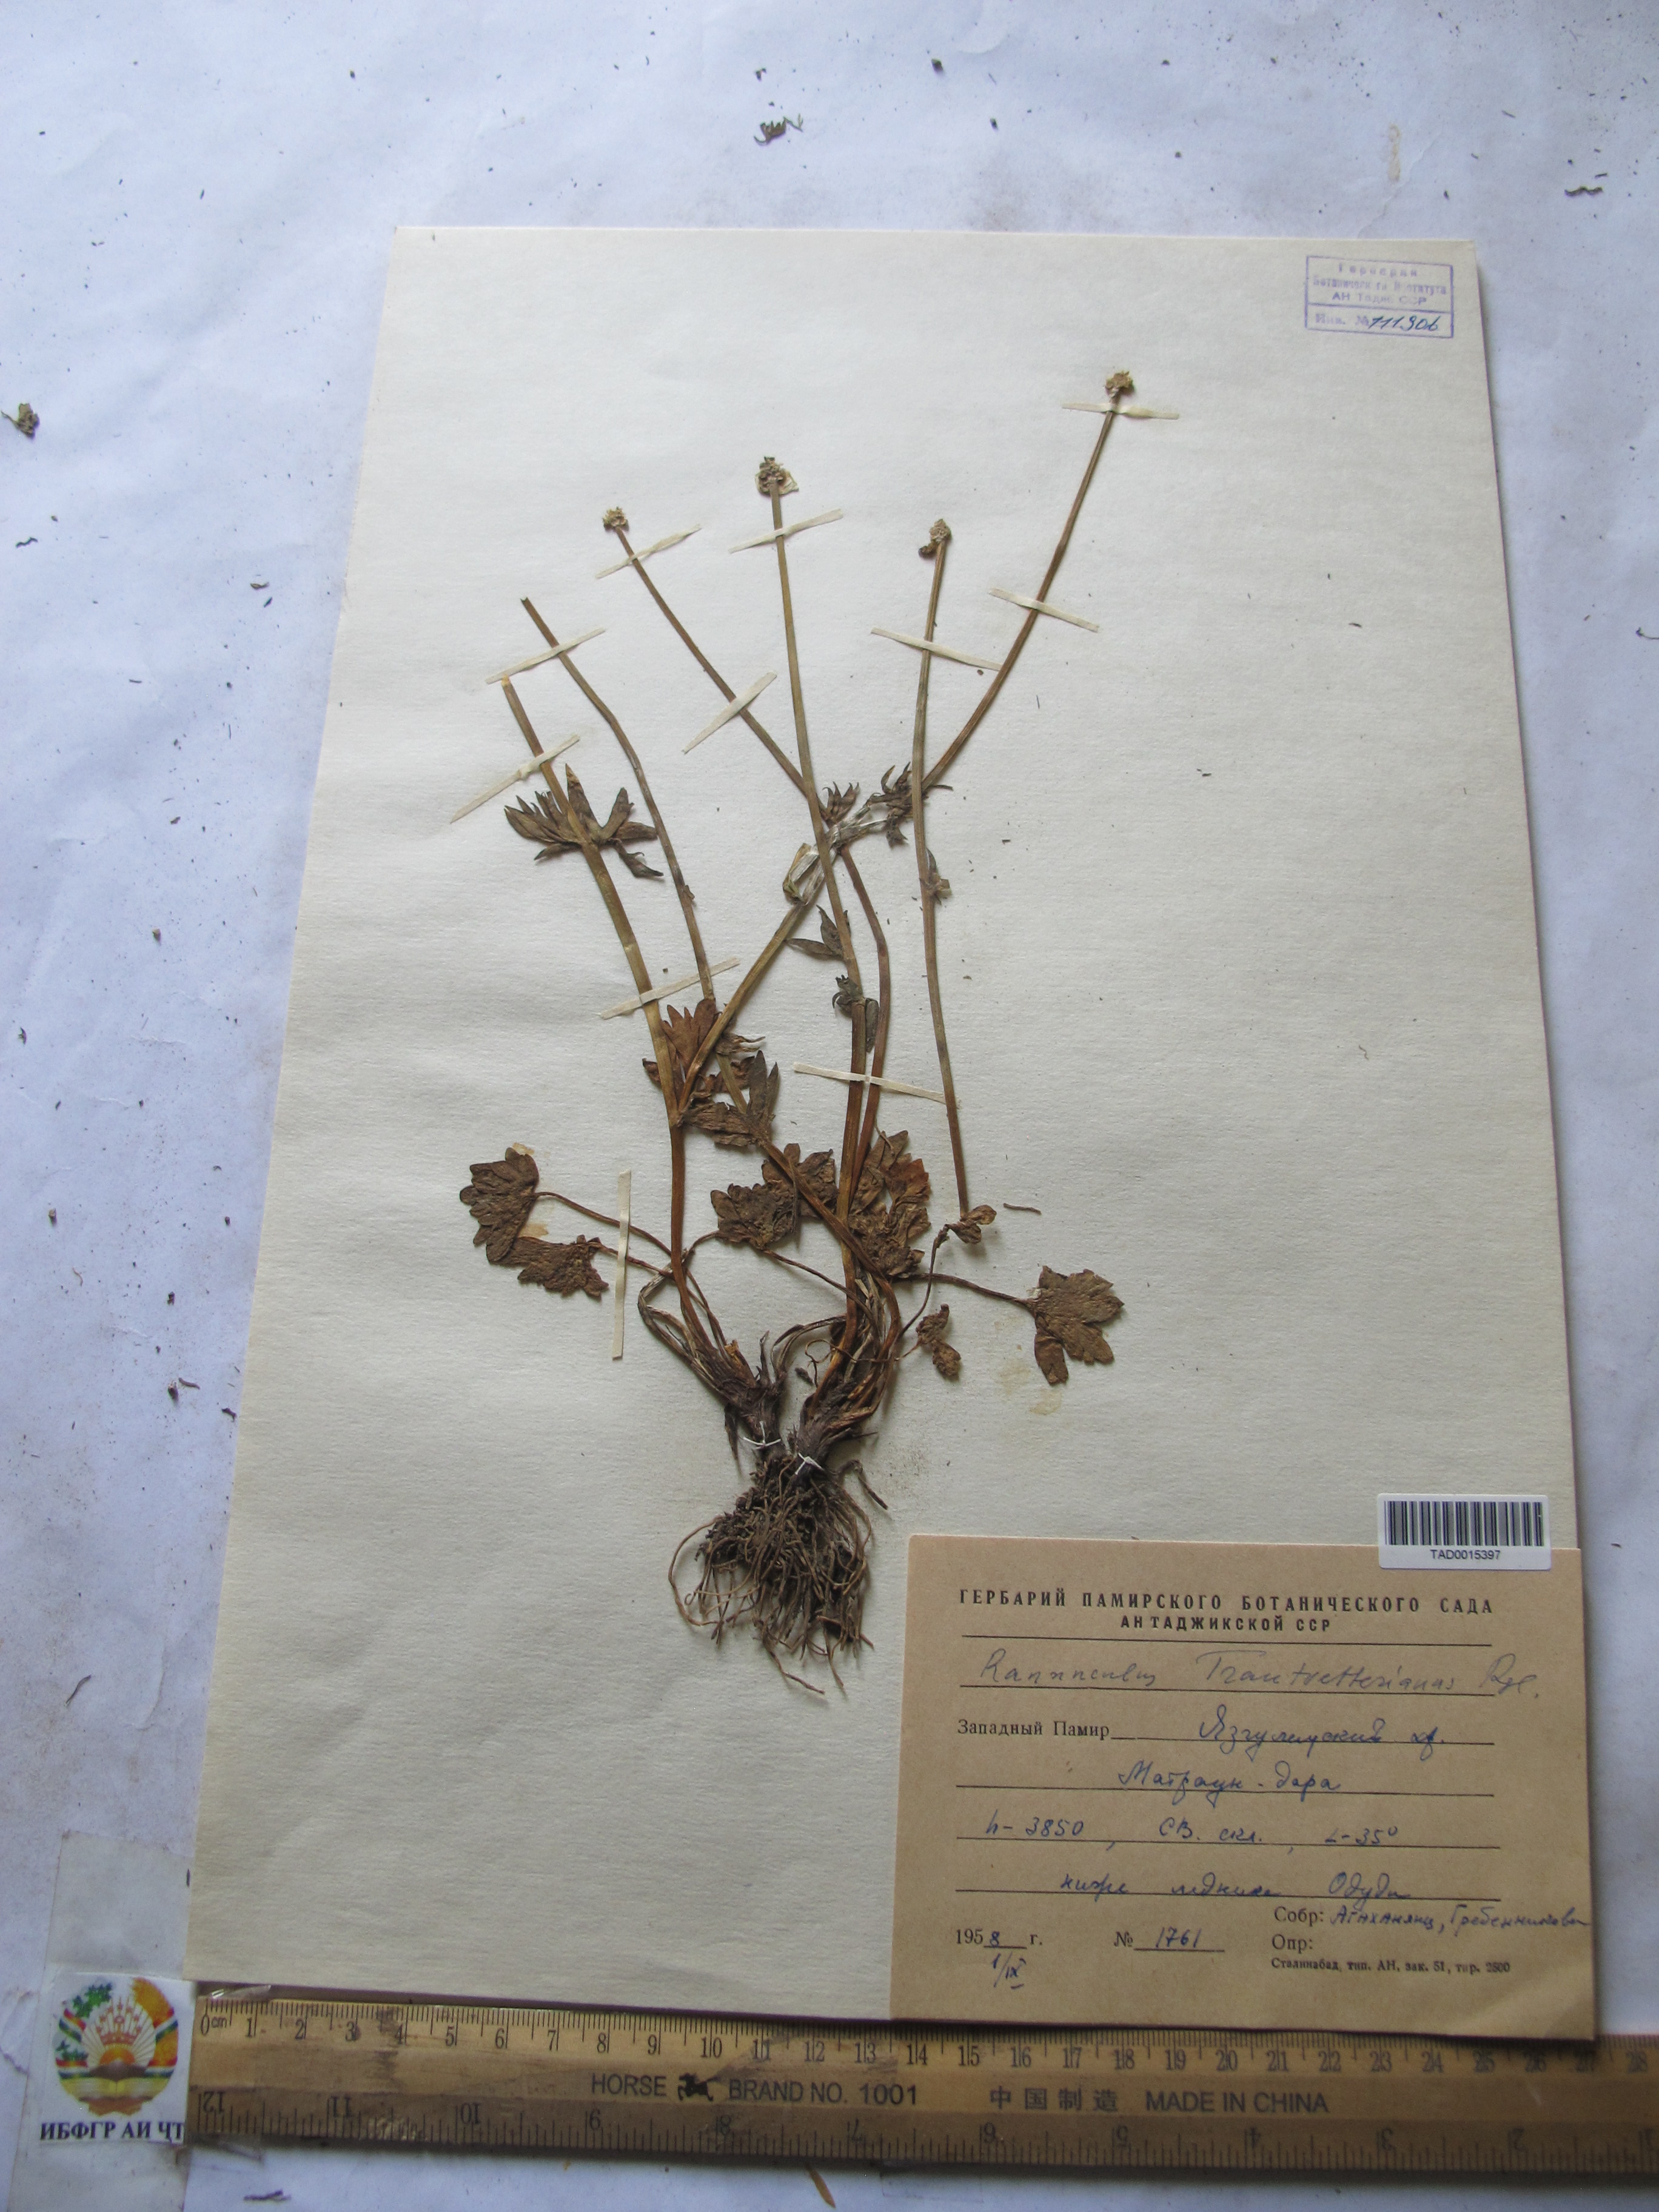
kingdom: Plantae
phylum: Tracheophyta
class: Magnoliopsida
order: Ranunculales
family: Ranunculaceae
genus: Ranunculus
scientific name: Ranunculus songaricus
